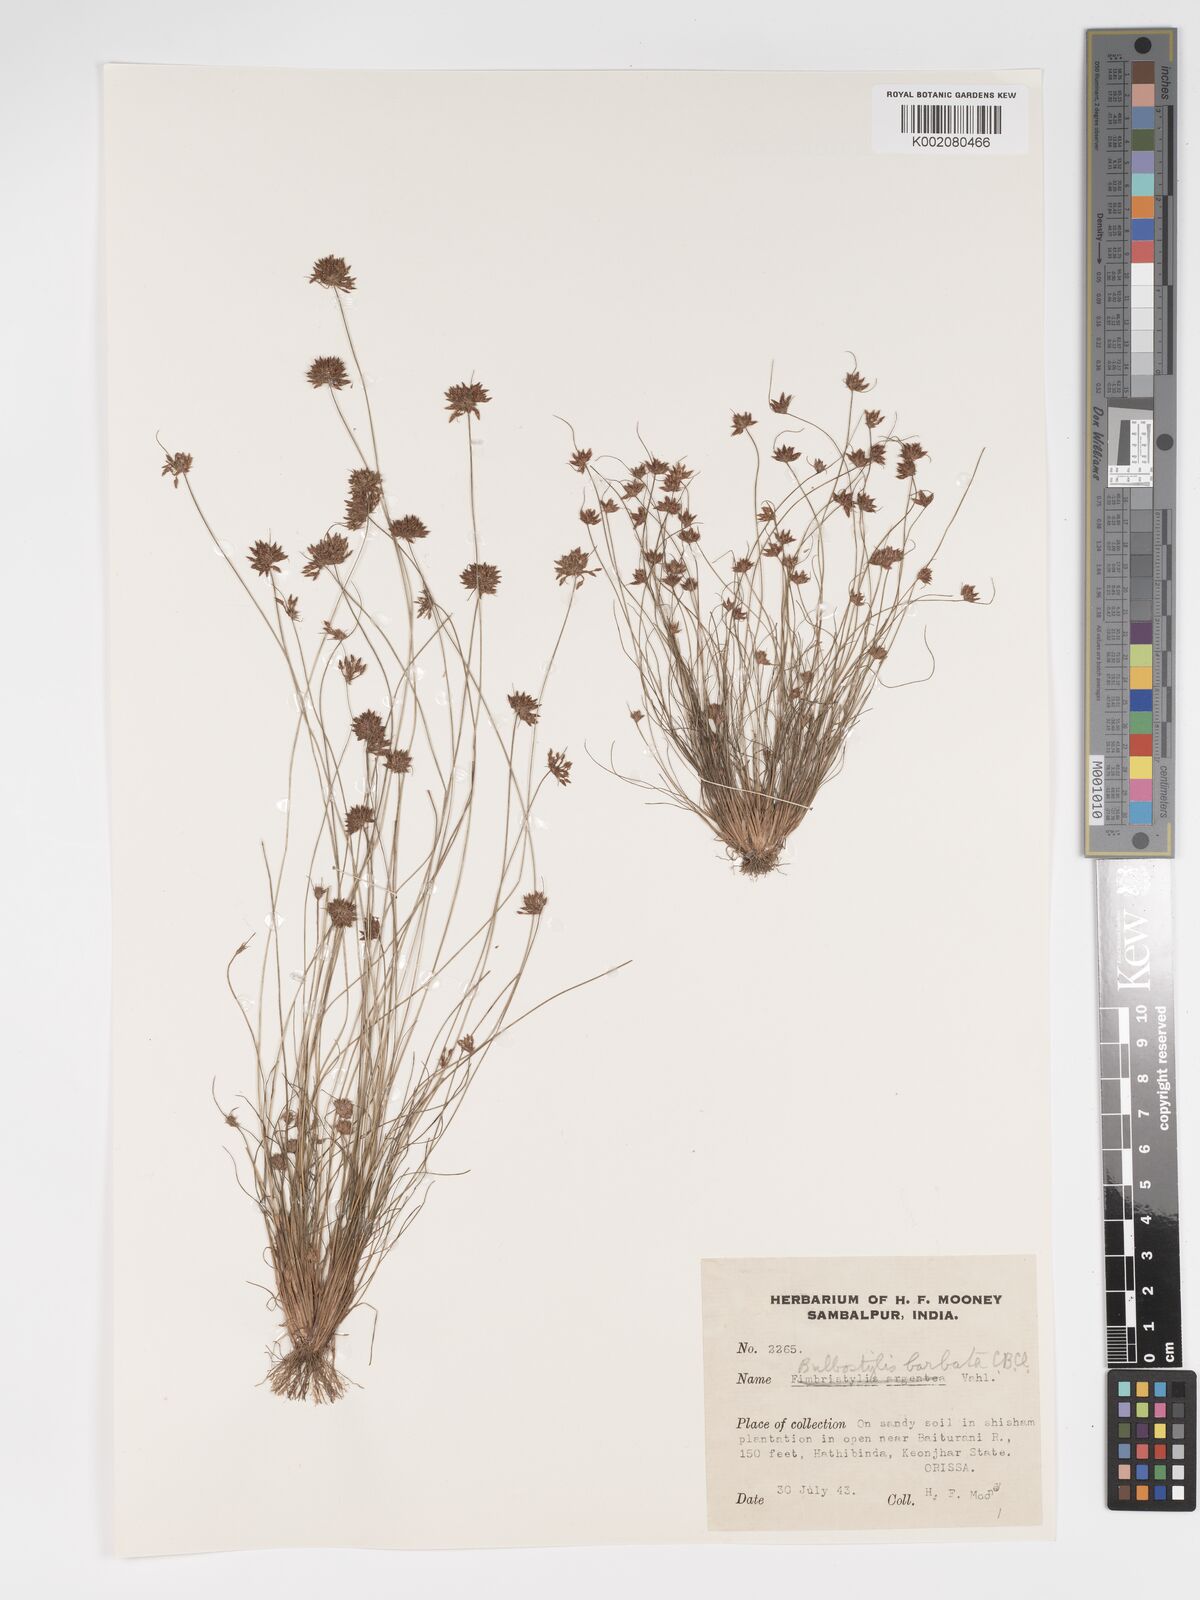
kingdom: Plantae
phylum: Tracheophyta
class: Liliopsida
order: Poales
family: Cyperaceae
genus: Bulbostylis
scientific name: Bulbostylis barbata
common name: Watergrass
